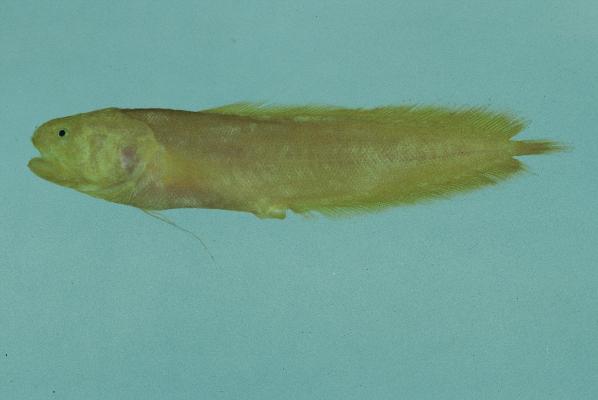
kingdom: Animalia
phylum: Chordata
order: Ophidiiformes
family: Bythitidae
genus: Dinematichthys
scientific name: Dinematichthys iluocoeteoides
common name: Small eye brotula
